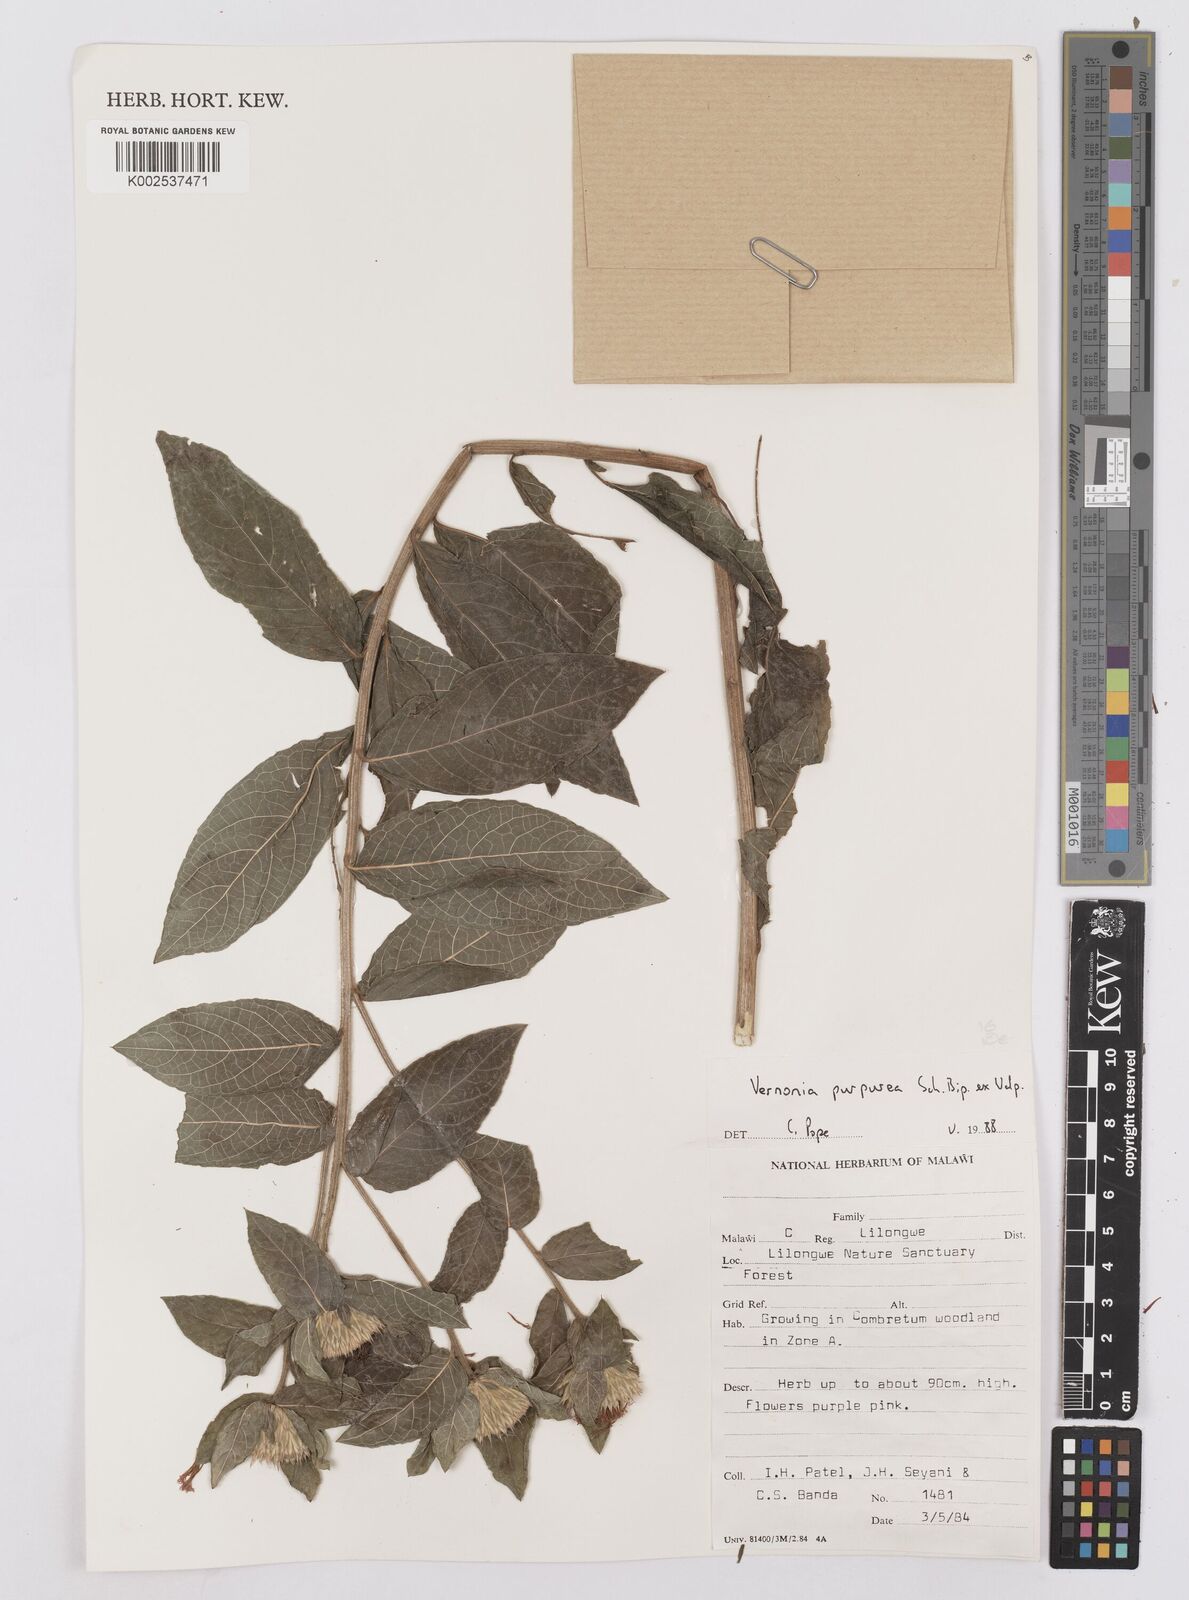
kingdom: Plantae
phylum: Tracheophyta
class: Magnoliopsida
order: Asterales
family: Asteraceae
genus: Nothovernonia
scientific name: Nothovernonia purpurea
